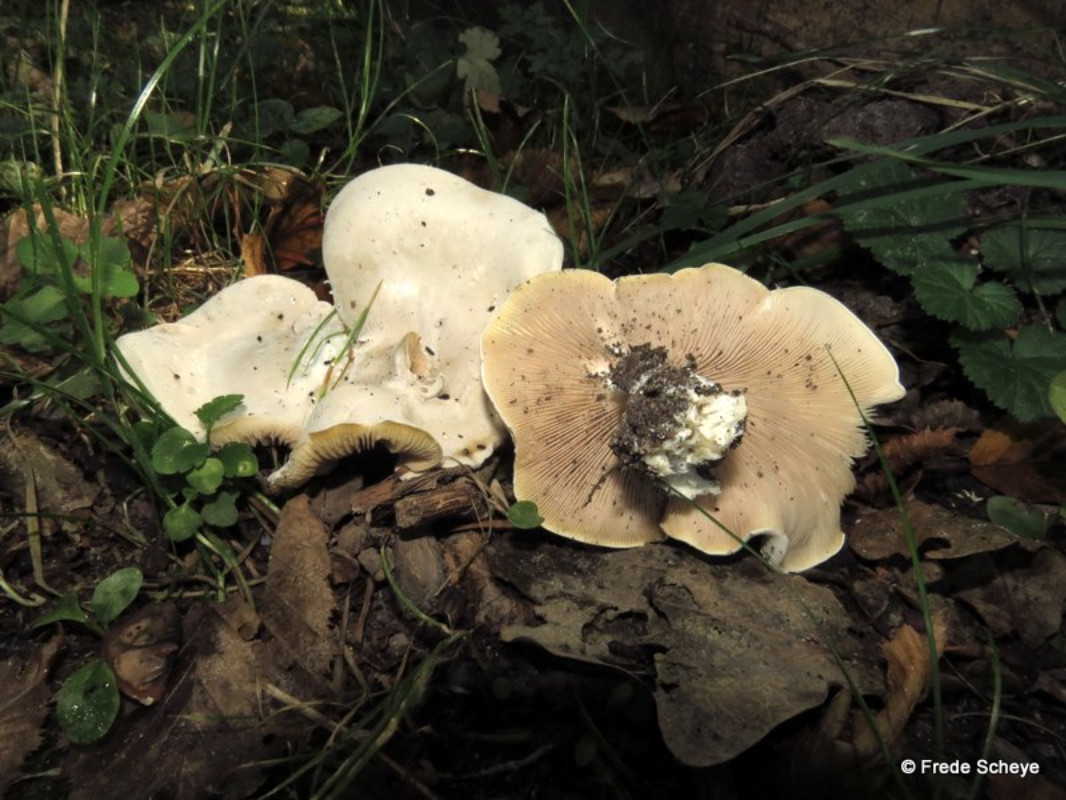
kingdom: Fungi
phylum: Basidiomycota
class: Agaricomycetes
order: Agaricales
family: Entolomataceae
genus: Clitopilus
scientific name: Clitopilus prunulus
